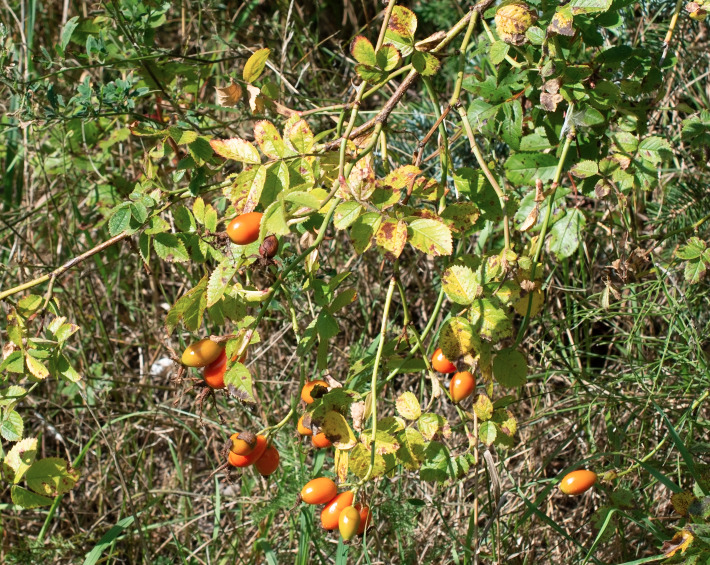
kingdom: Plantae
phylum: Tracheophyta
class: Magnoliopsida
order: Rosales
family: Rosaceae
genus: Rosa
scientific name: Rosa rubiginosa
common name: Æble-rose
